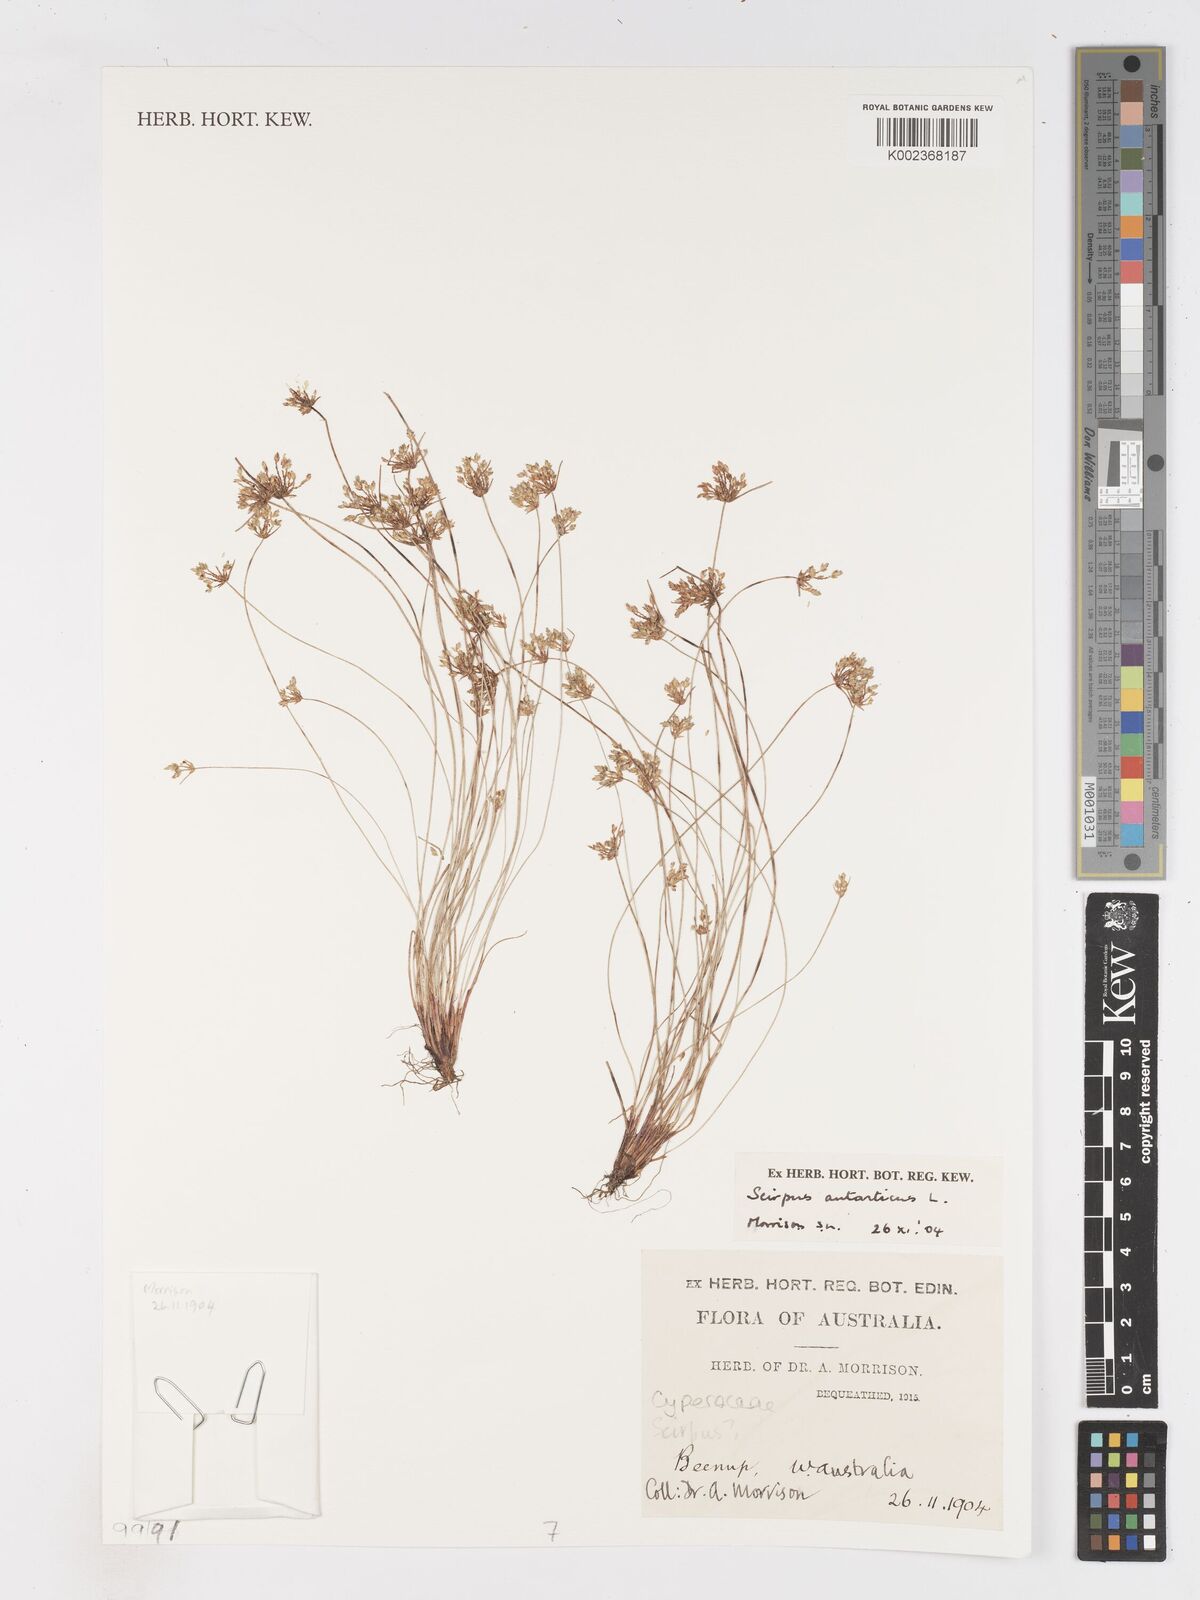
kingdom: Plantae
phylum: Tracheophyta
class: Liliopsida
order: Poales
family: Cyperaceae
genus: Isolepis
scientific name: Isolepis antarctica
